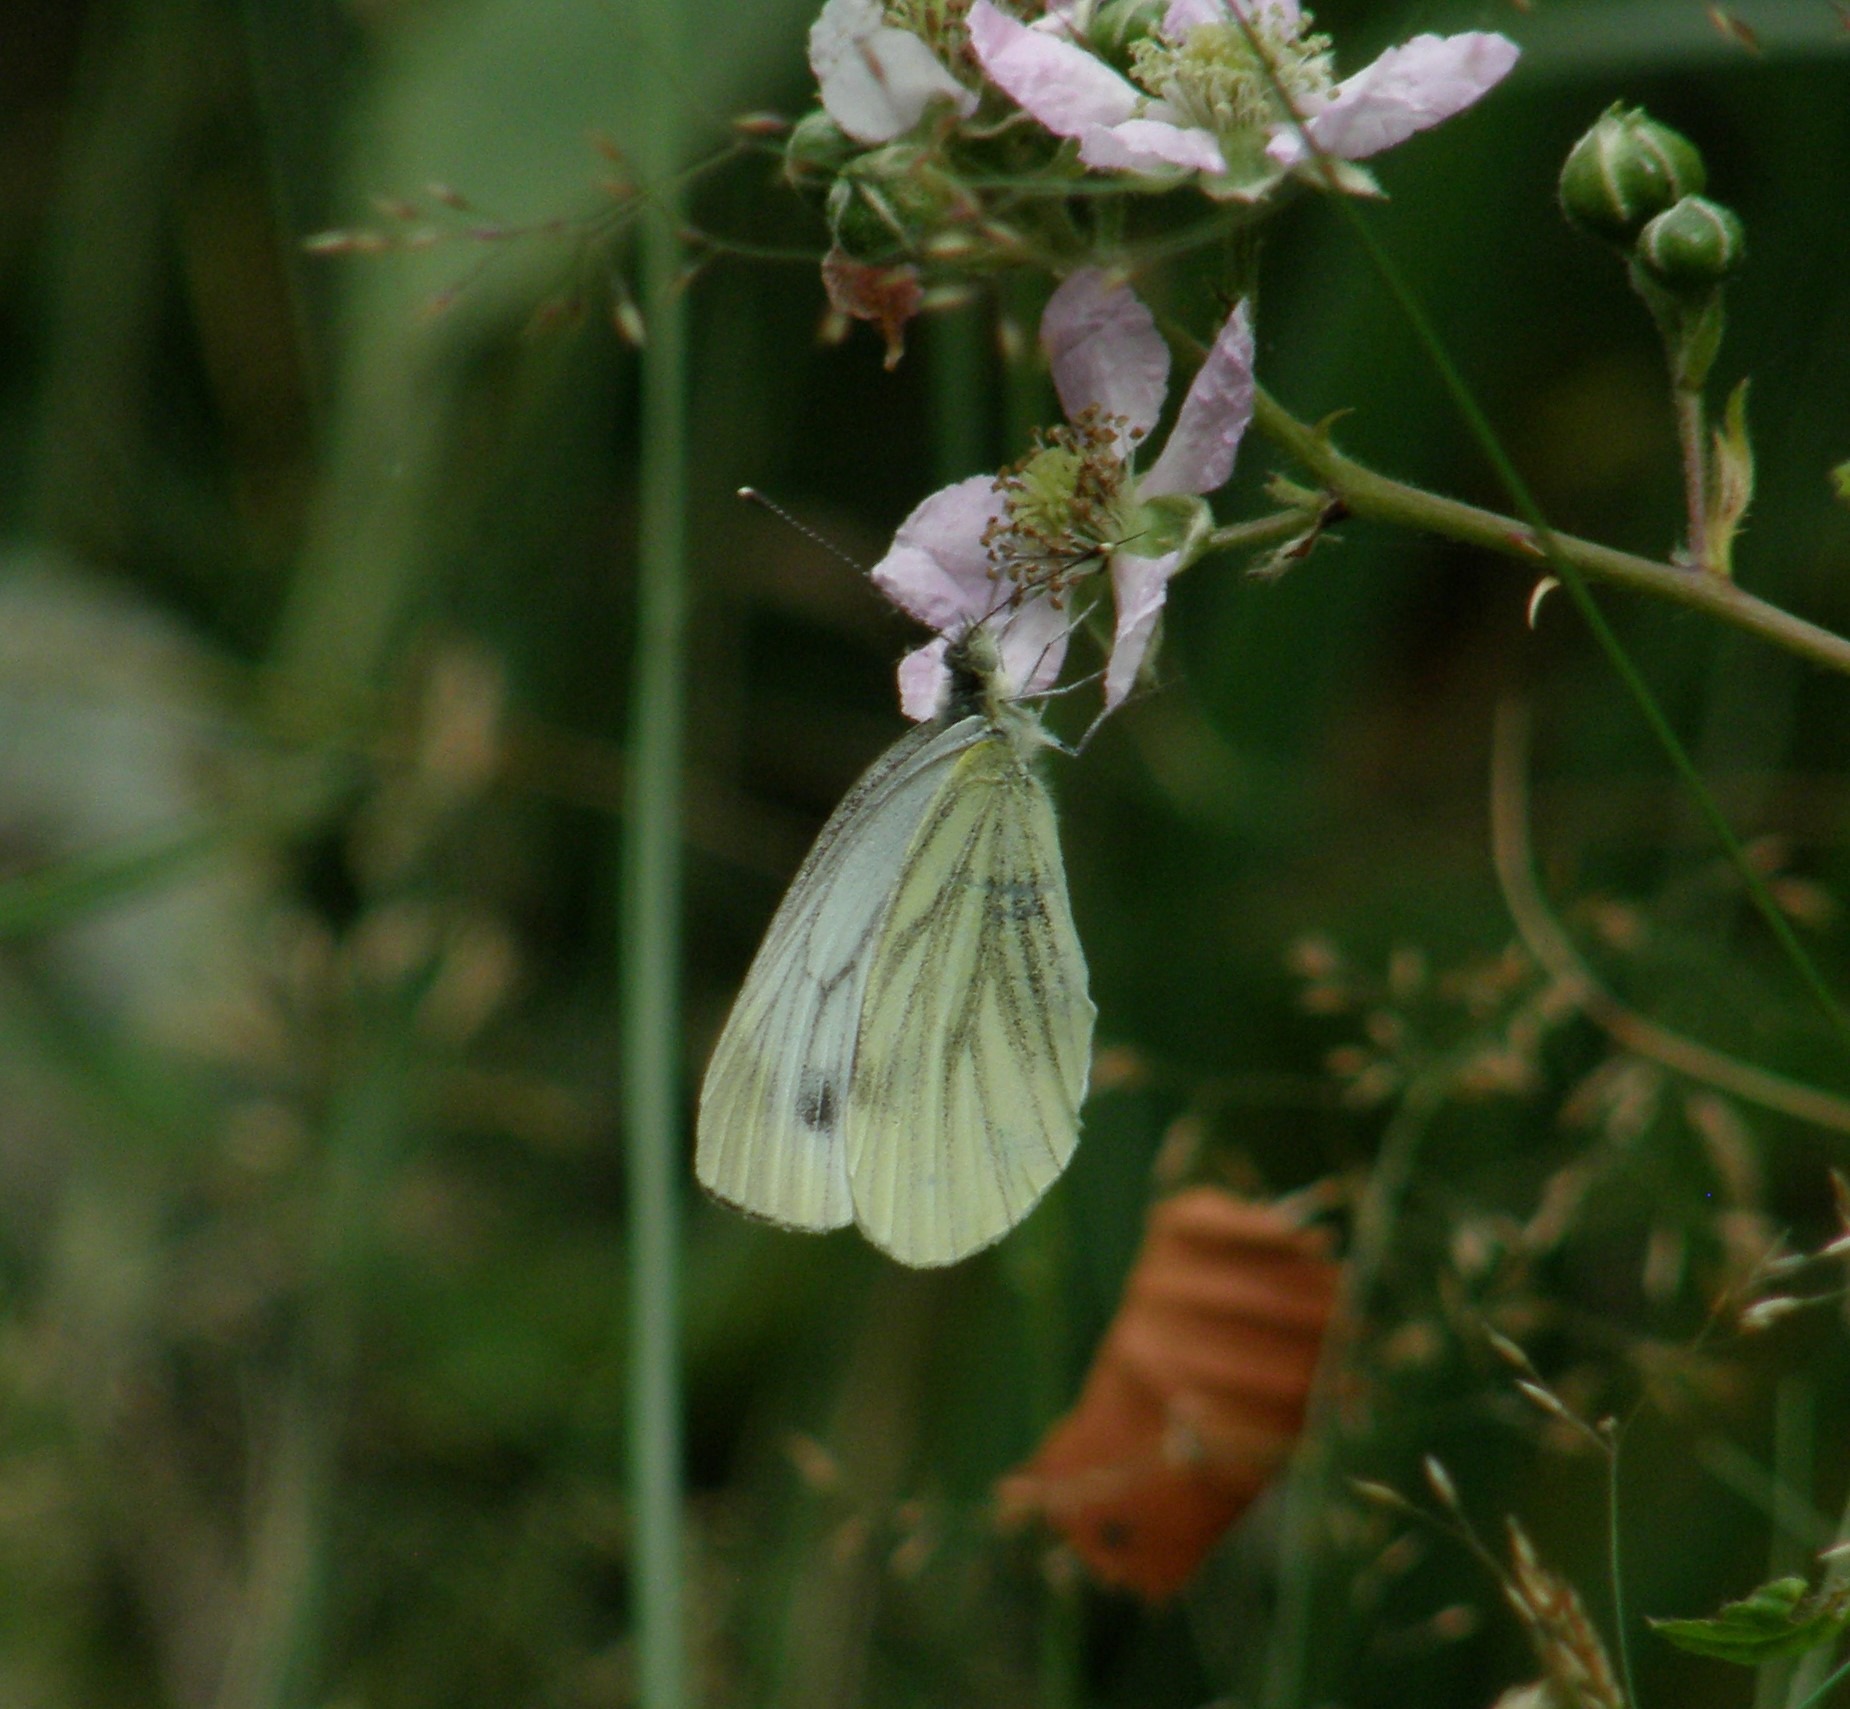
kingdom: Animalia
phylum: Arthropoda
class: Insecta
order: Lepidoptera
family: Pieridae
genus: Pieris
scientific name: Pieris napi
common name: Grønåret kålsommerfugl
